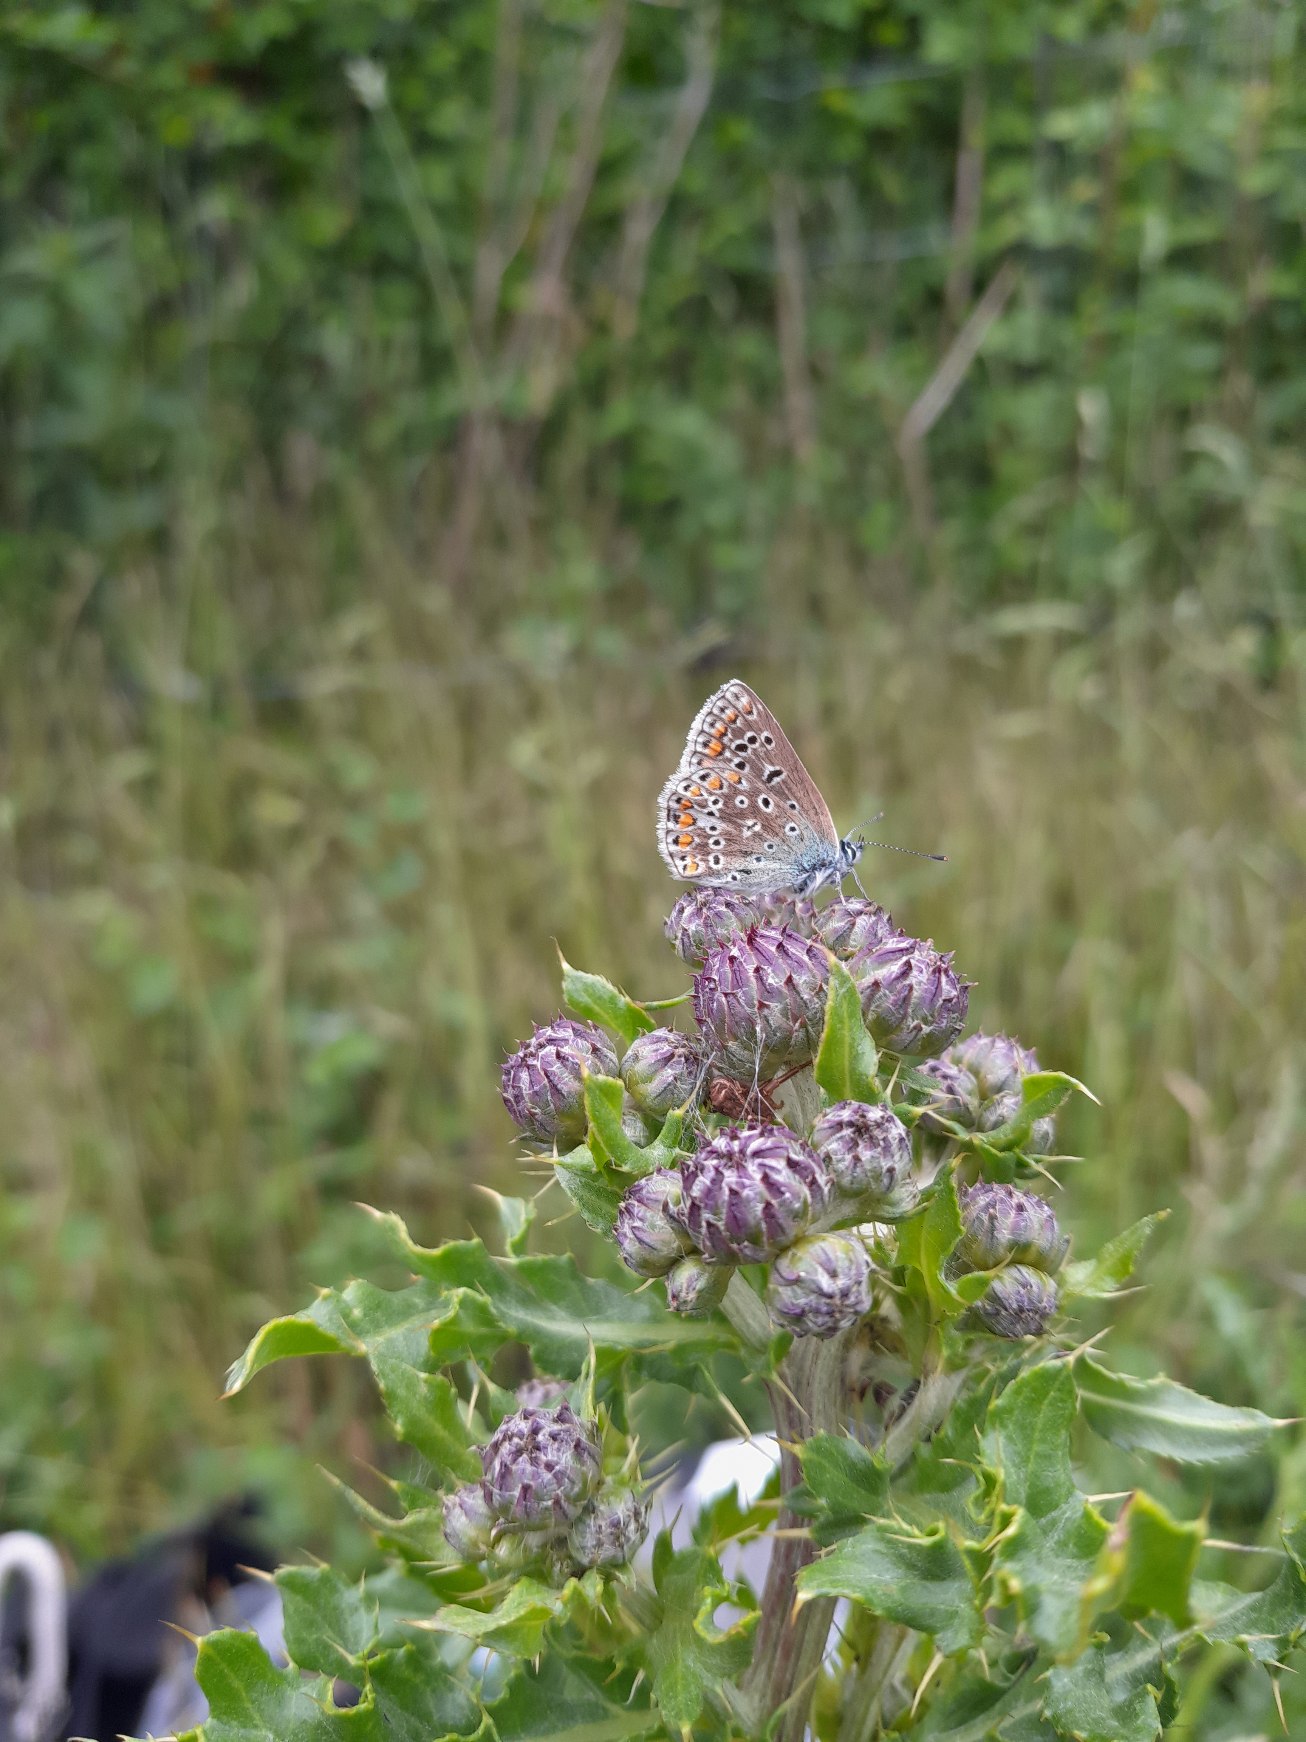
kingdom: Animalia
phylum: Arthropoda
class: Insecta
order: Lepidoptera
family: Lycaenidae
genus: Polyommatus
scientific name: Polyommatus icarus
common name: Almindelig blåfugl
